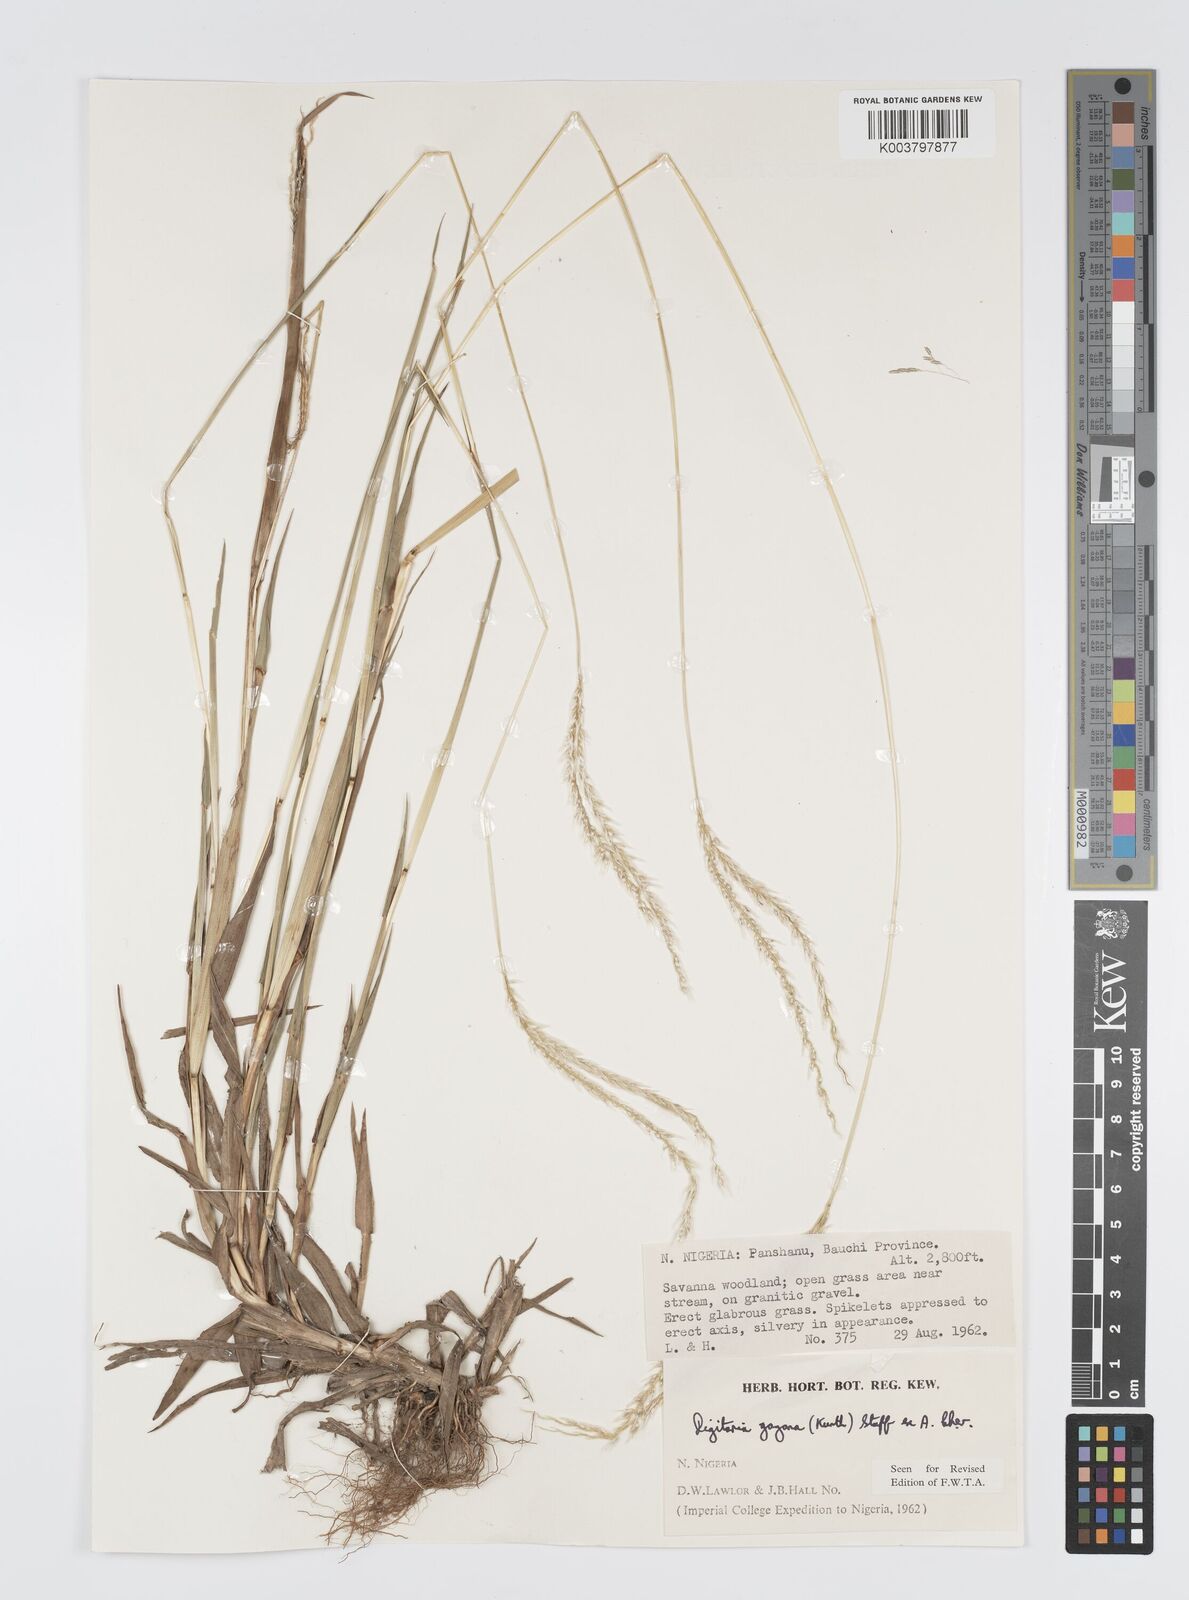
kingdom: Plantae
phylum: Tracheophyta
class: Liliopsida
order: Poales
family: Poaceae
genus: Digitaria
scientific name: Digitaria gayana
